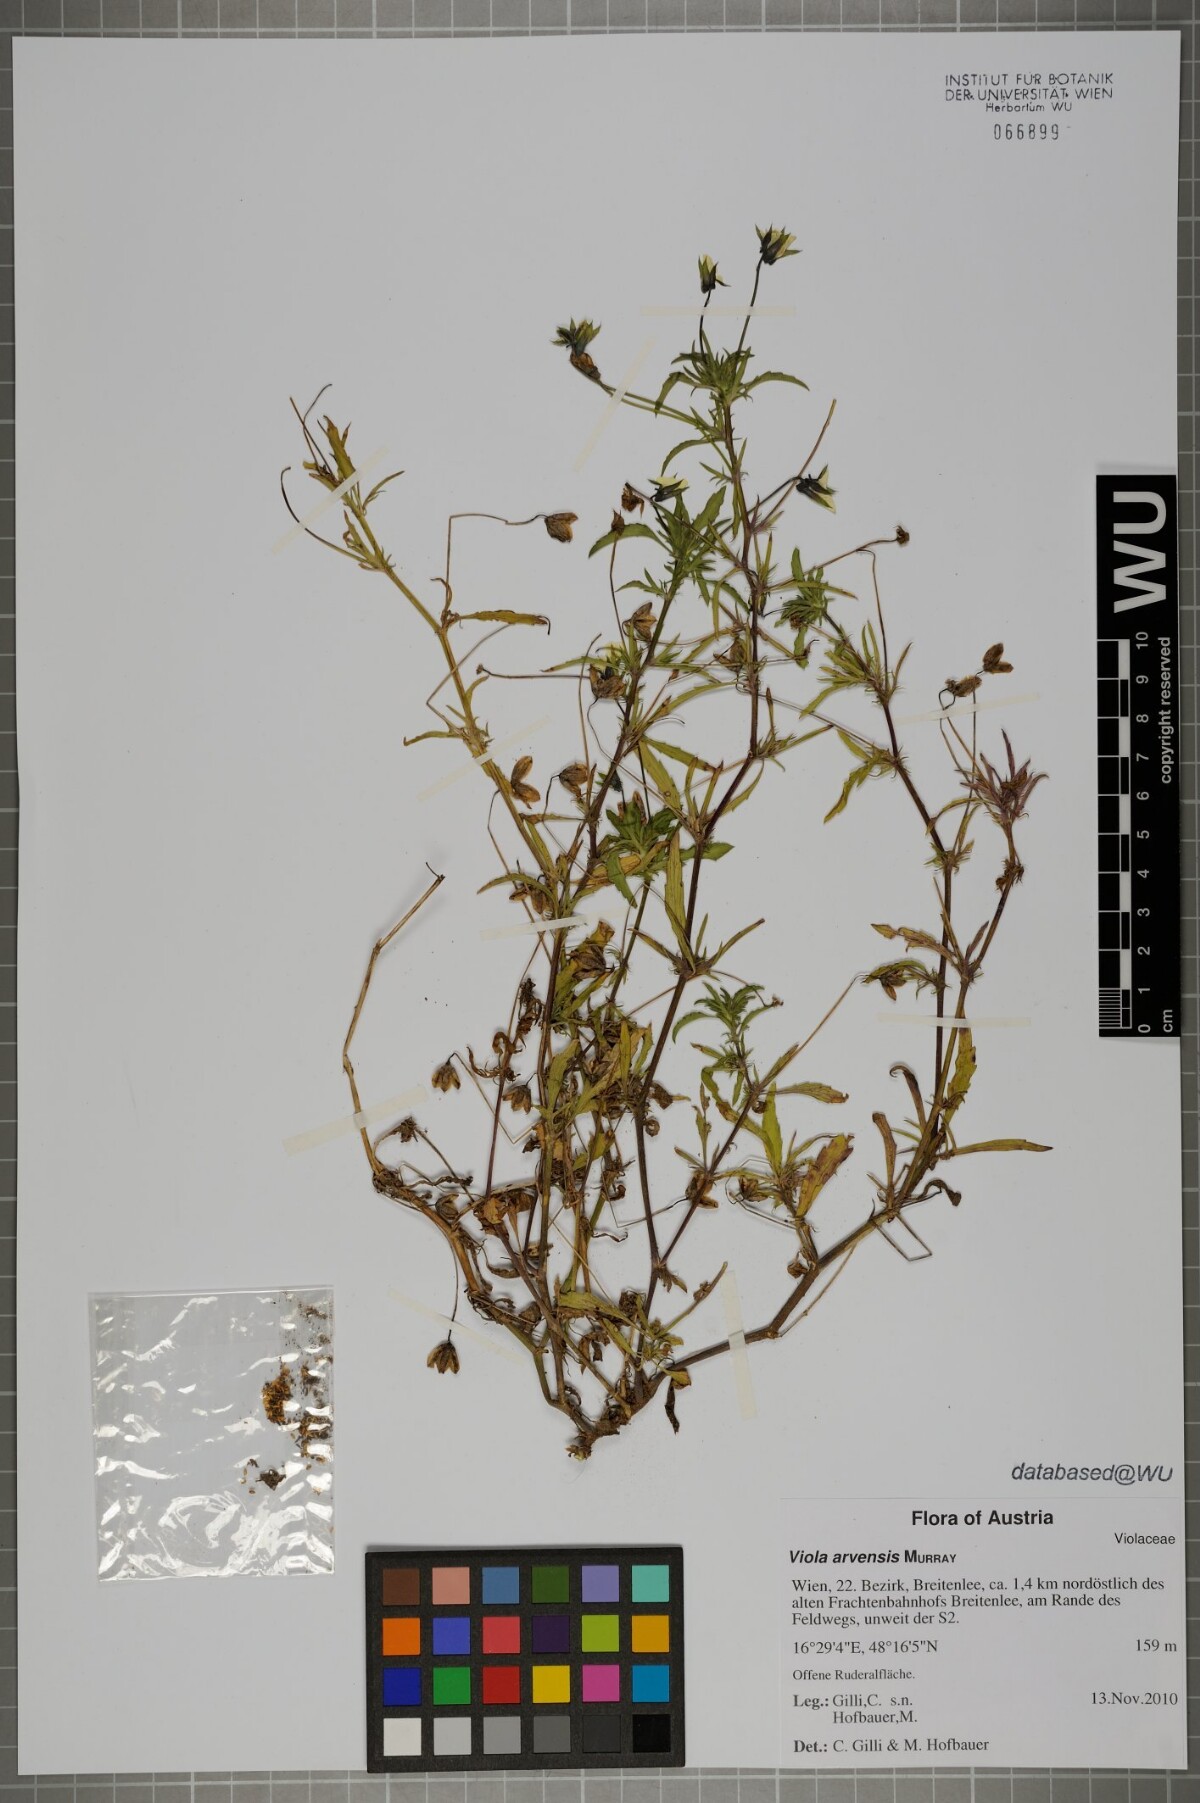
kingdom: Plantae
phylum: Tracheophyta
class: Magnoliopsida
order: Malpighiales
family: Violaceae
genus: Viola
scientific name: Viola arvensis
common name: Field pansy
